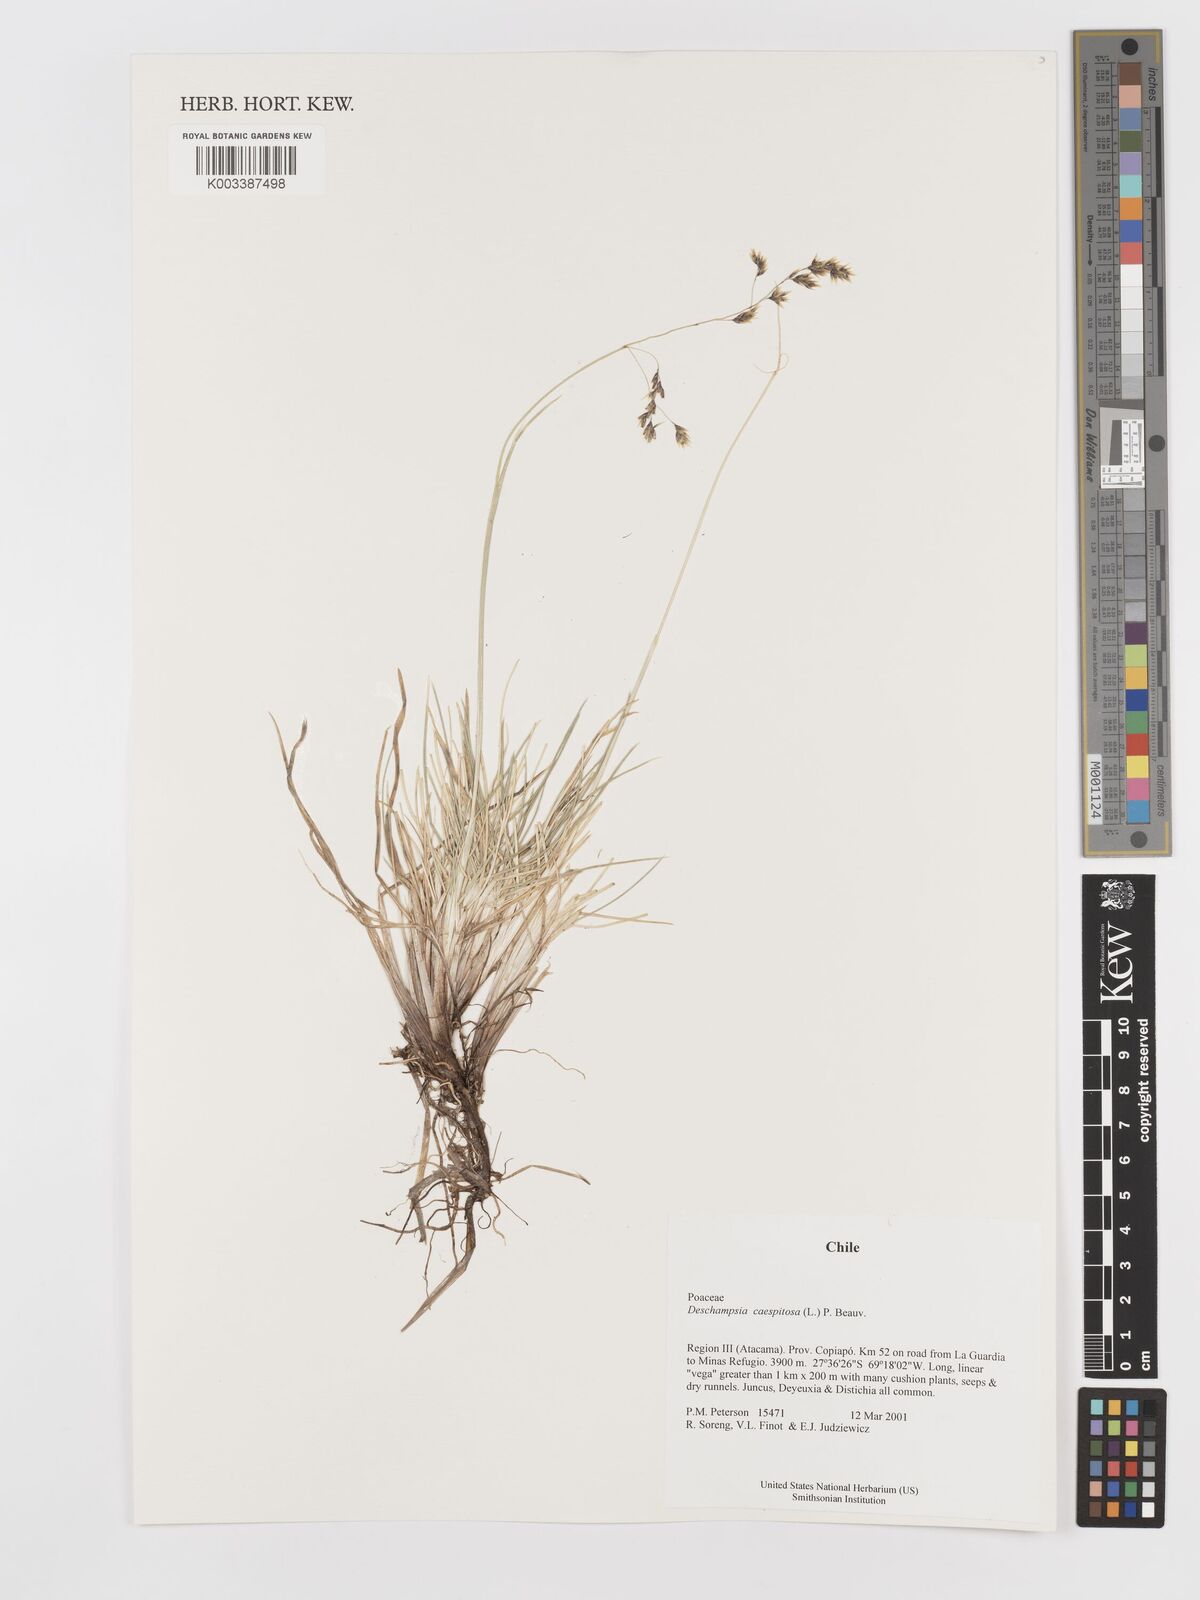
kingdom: Plantae
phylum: Tracheophyta
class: Liliopsida
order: Poales
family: Poaceae
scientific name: Poaceae
